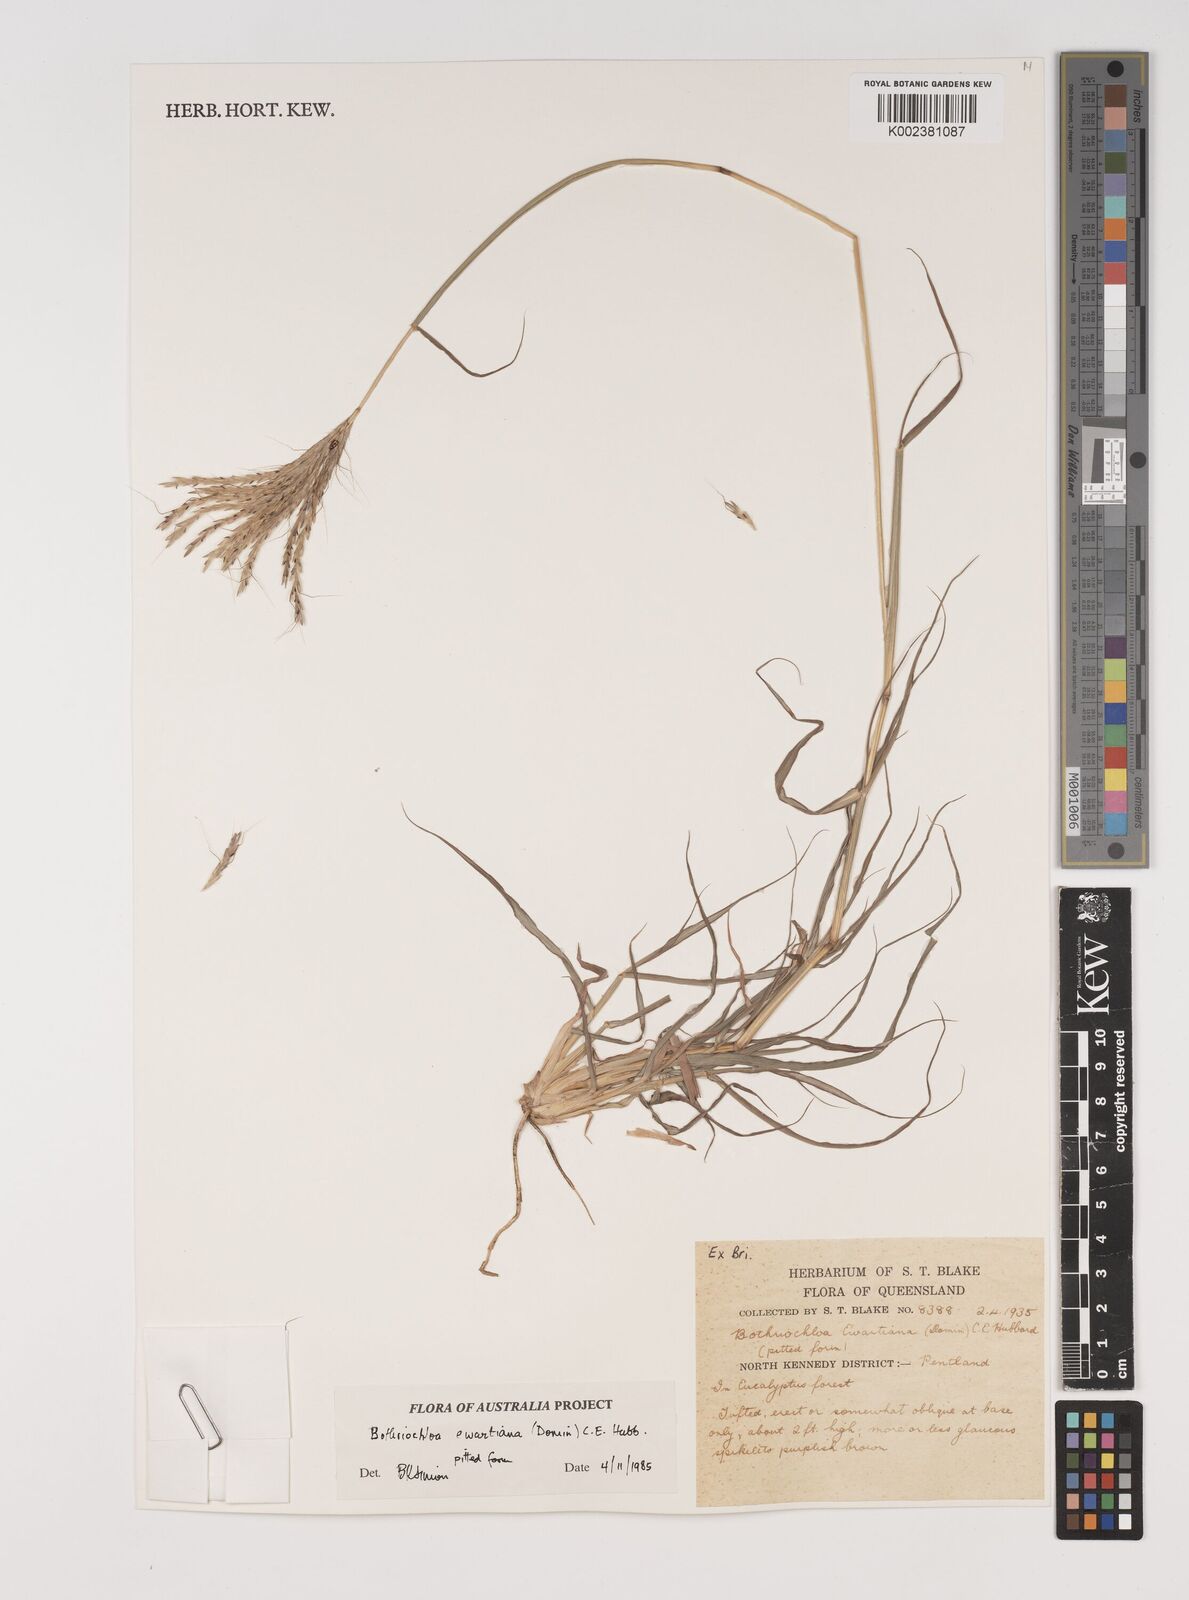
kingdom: Plantae
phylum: Tracheophyta
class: Liliopsida
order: Poales
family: Poaceae
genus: Bothriochloa
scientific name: Bothriochloa ewartiana
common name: Desert-bluegrass
